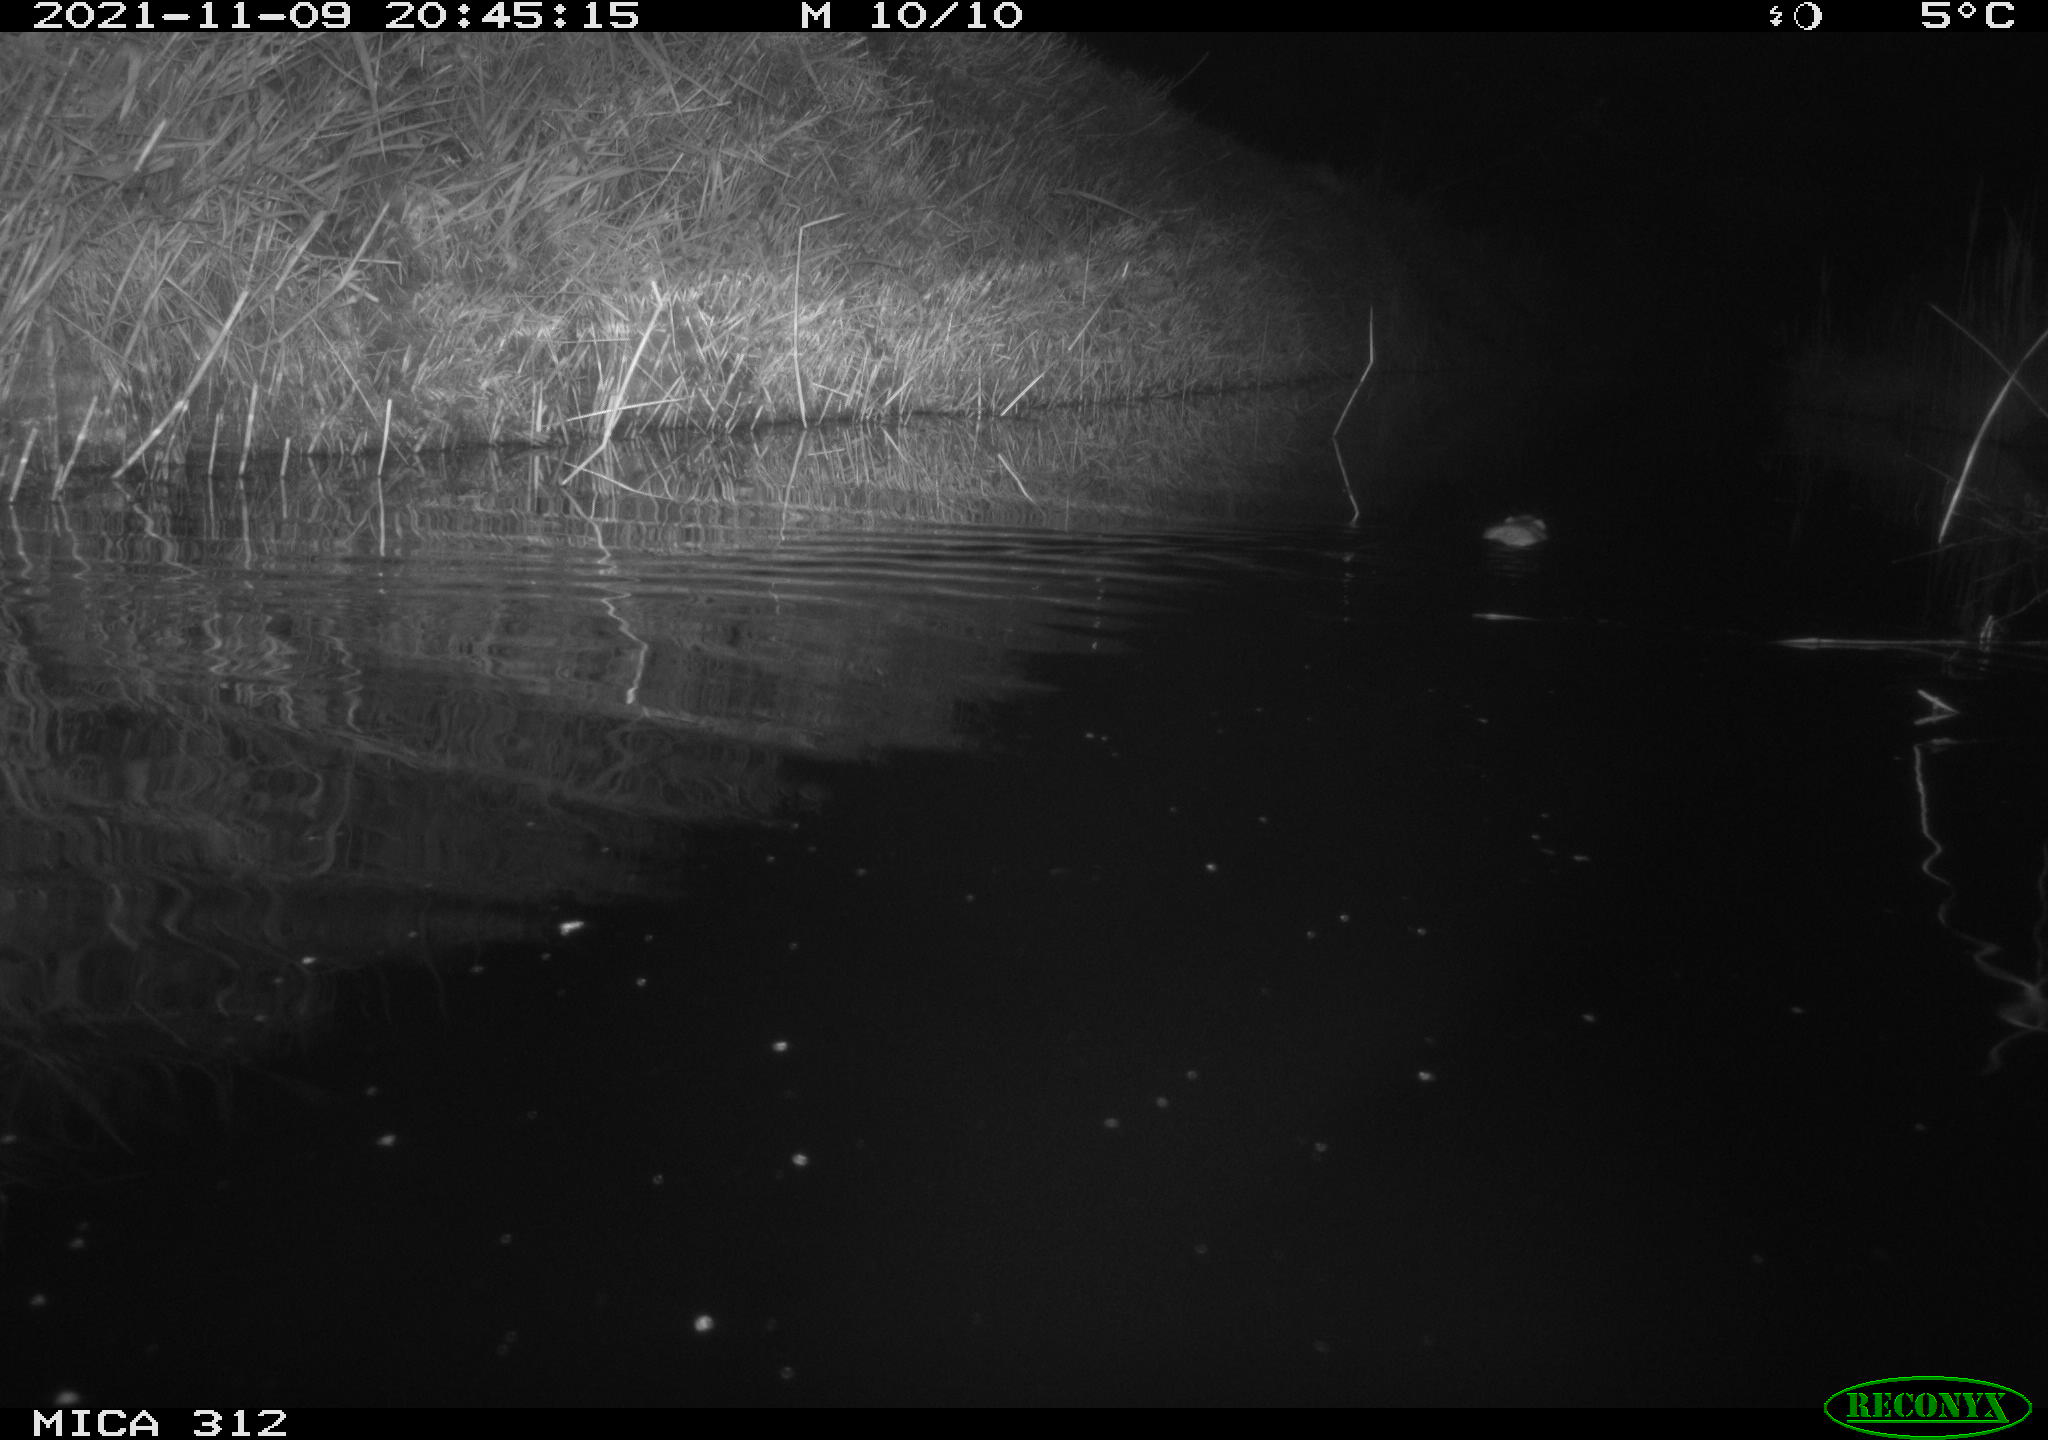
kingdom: Animalia
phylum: Chordata
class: Mammalia
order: Rodentia
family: Muridae
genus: Rattus
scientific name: Rattus norvegicus
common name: Brown rat
